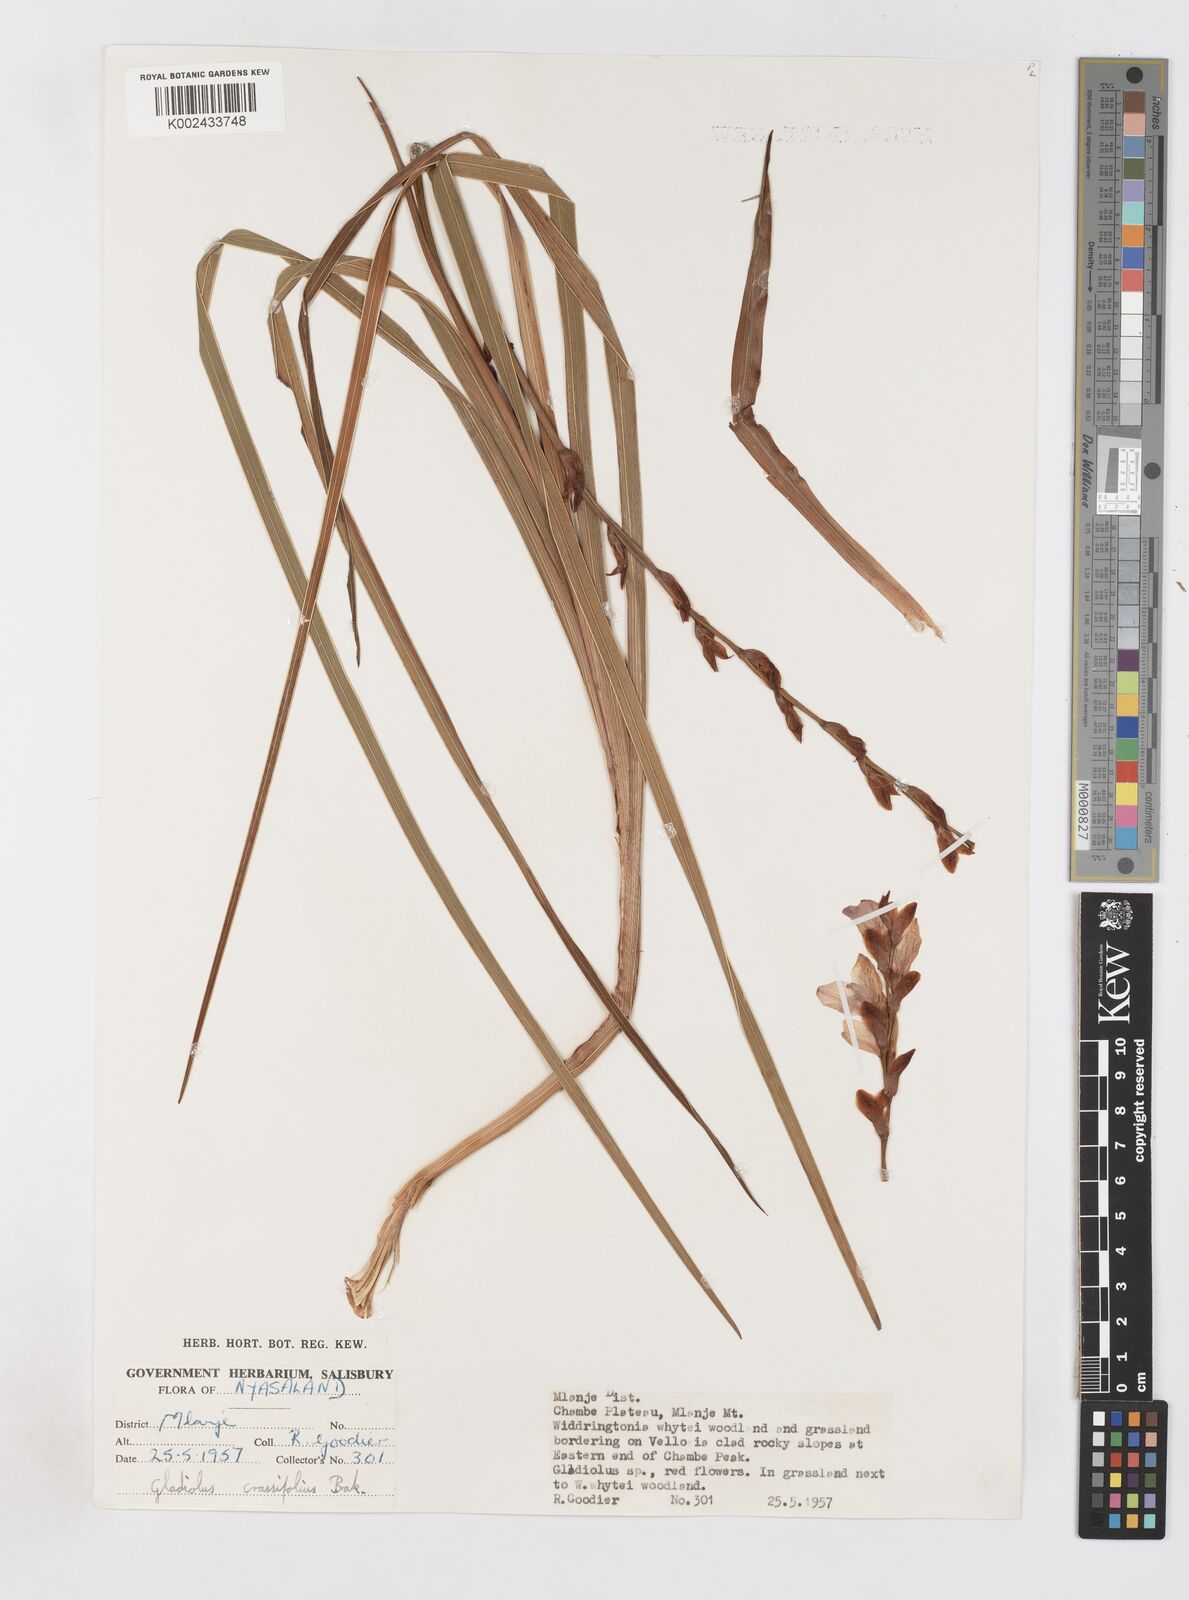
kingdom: Plantae
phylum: Tracheophyta
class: Liliopsida
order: Asparagales
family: Iridaceae
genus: Gladiolus
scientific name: Gladiolus crassifolius
